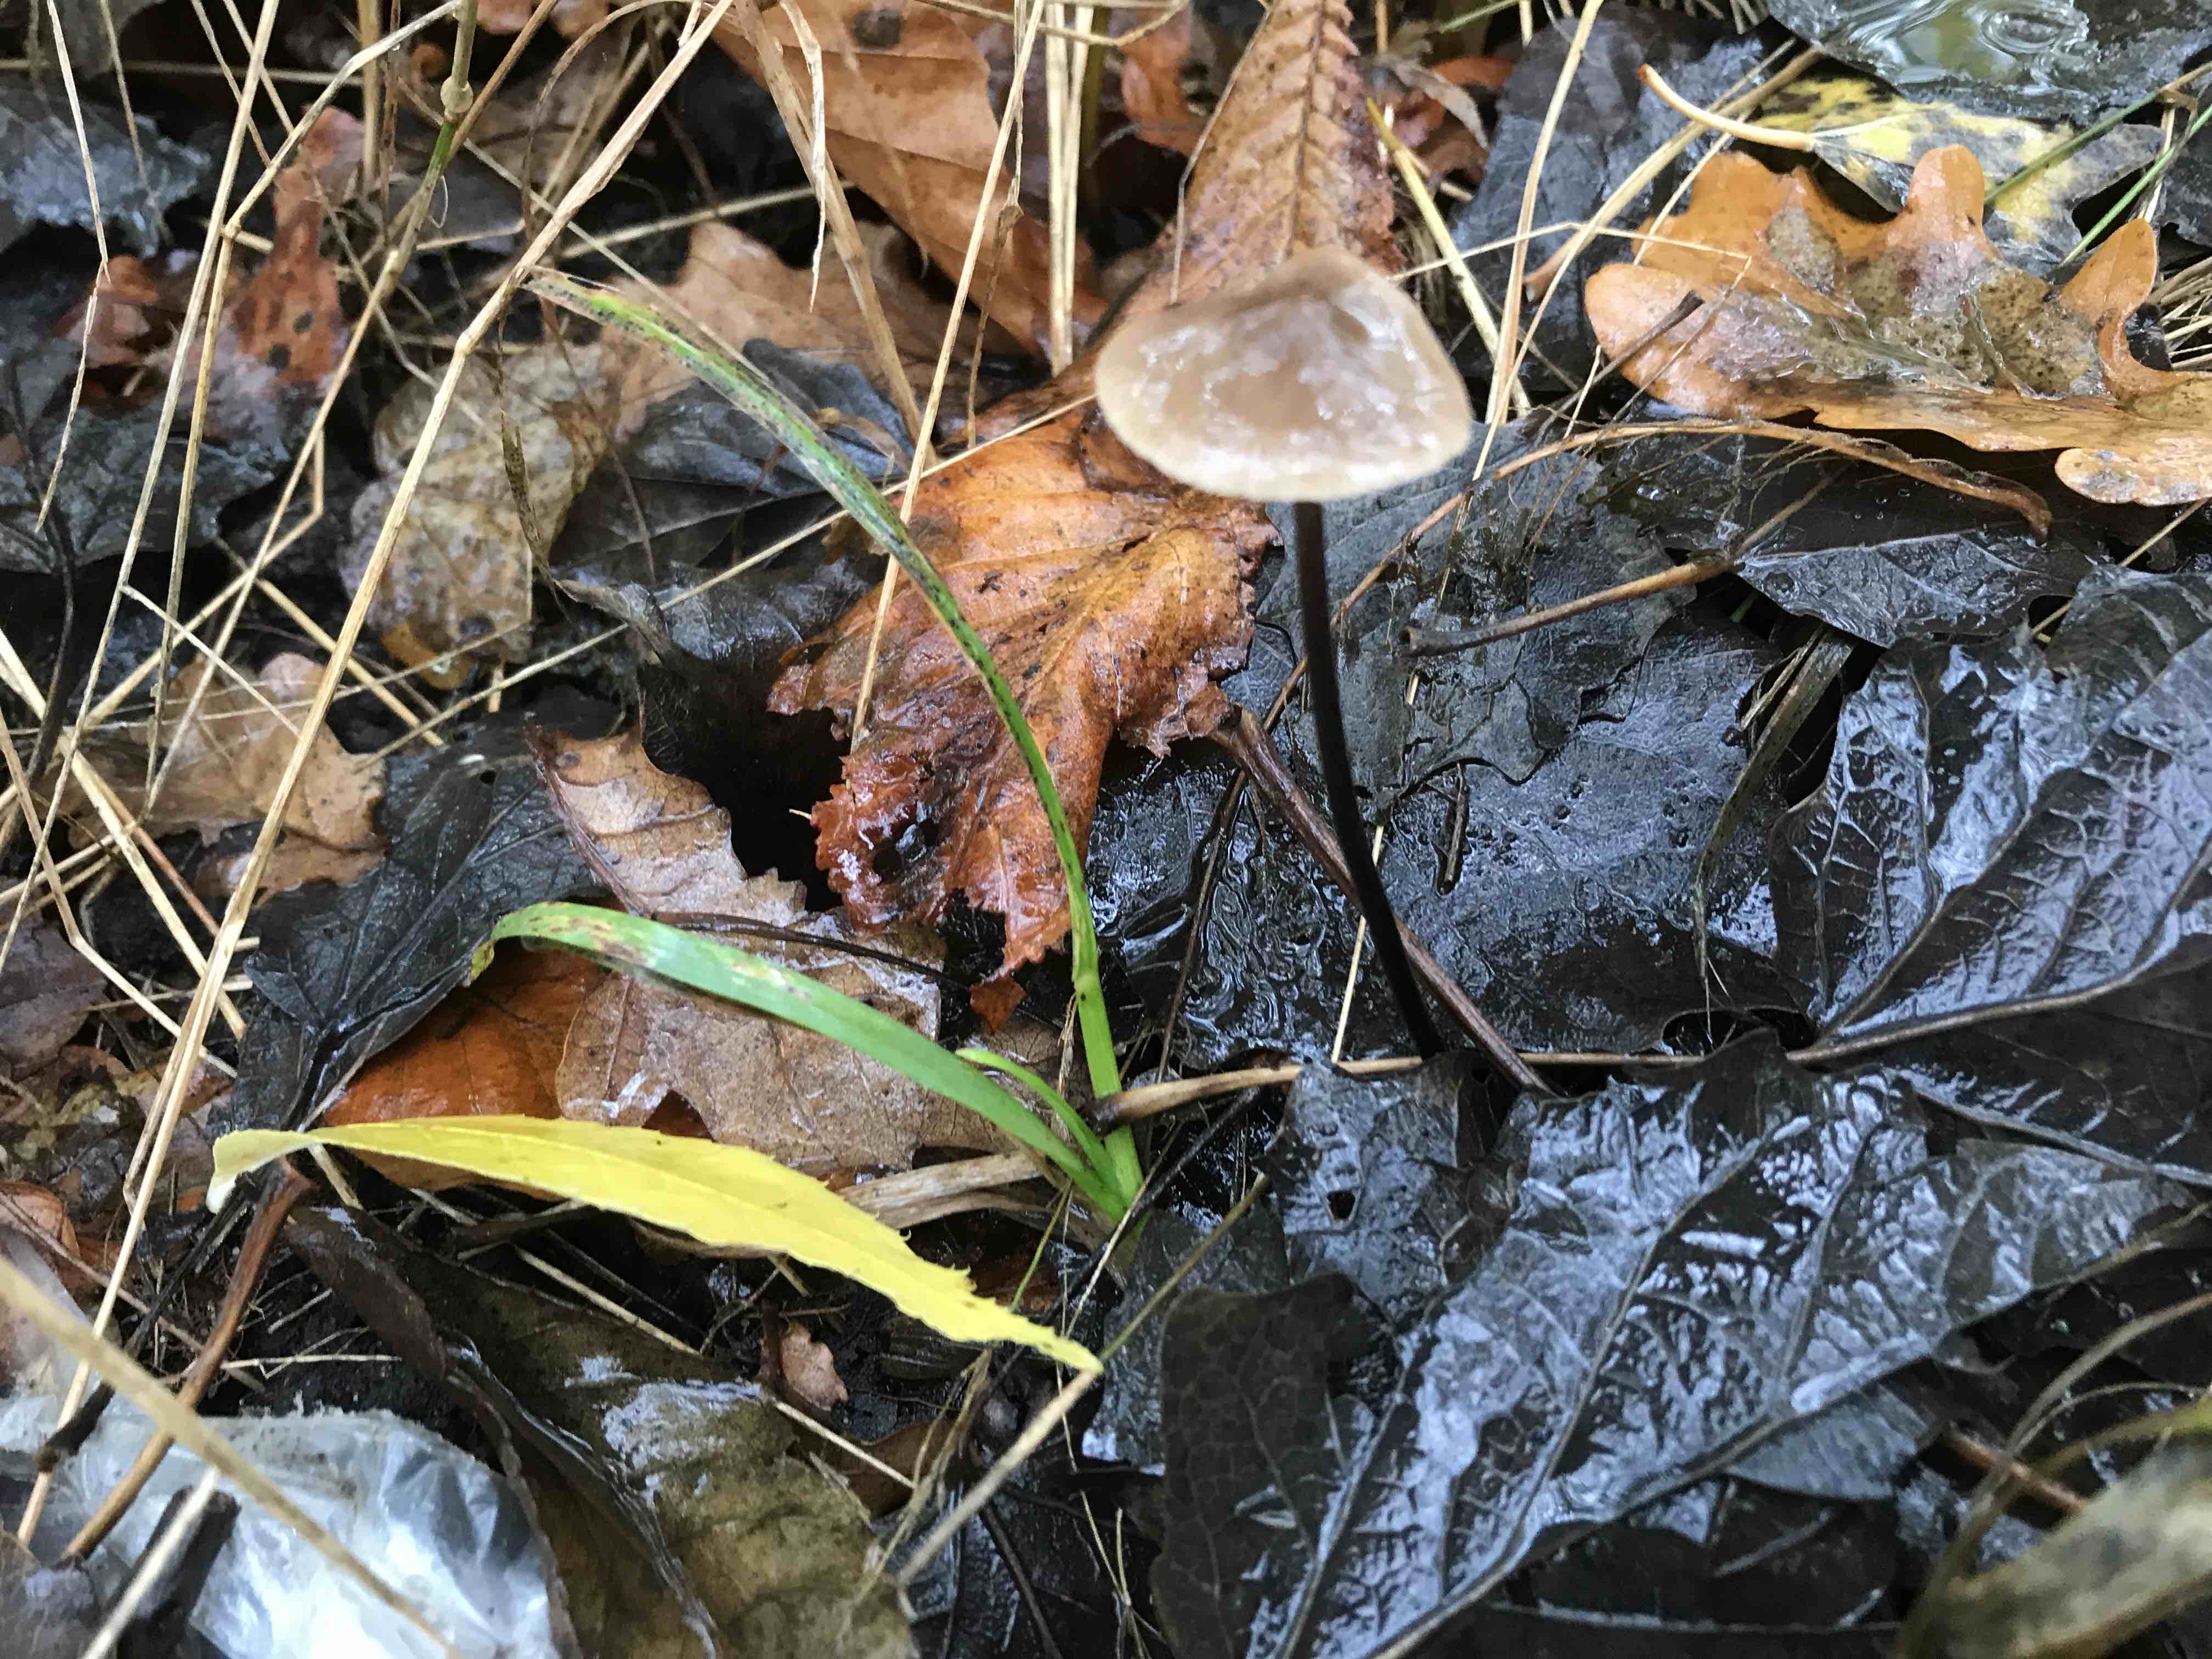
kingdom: Fungi
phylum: Basidiomycota
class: Agaricomycetes
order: Agaricales
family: Omphalotaceae
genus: Mycetinis
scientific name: Mycetinis alliaceus
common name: stor løghat
